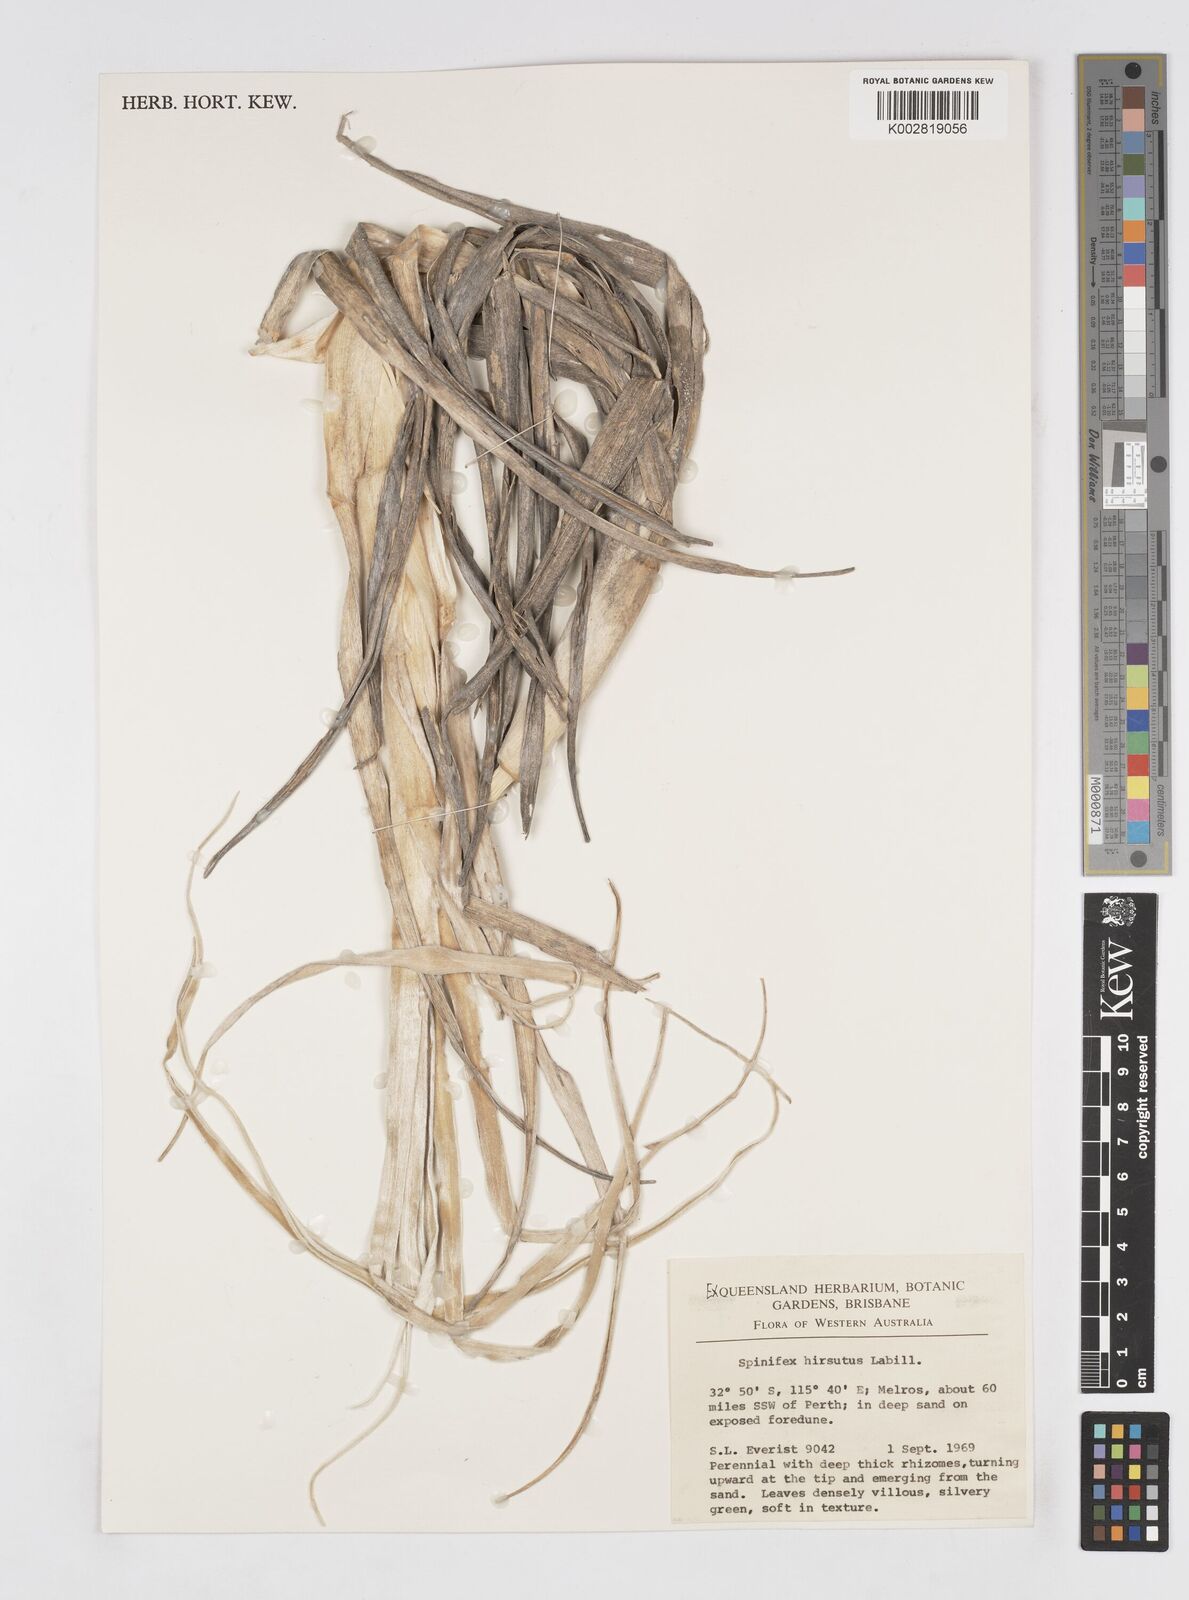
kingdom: Plantae
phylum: Tracheophyta
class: Liliopsida
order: Poales
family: Poaceae
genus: Spinifex
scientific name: Spinifex hirsutus
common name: Hairy spinifex
